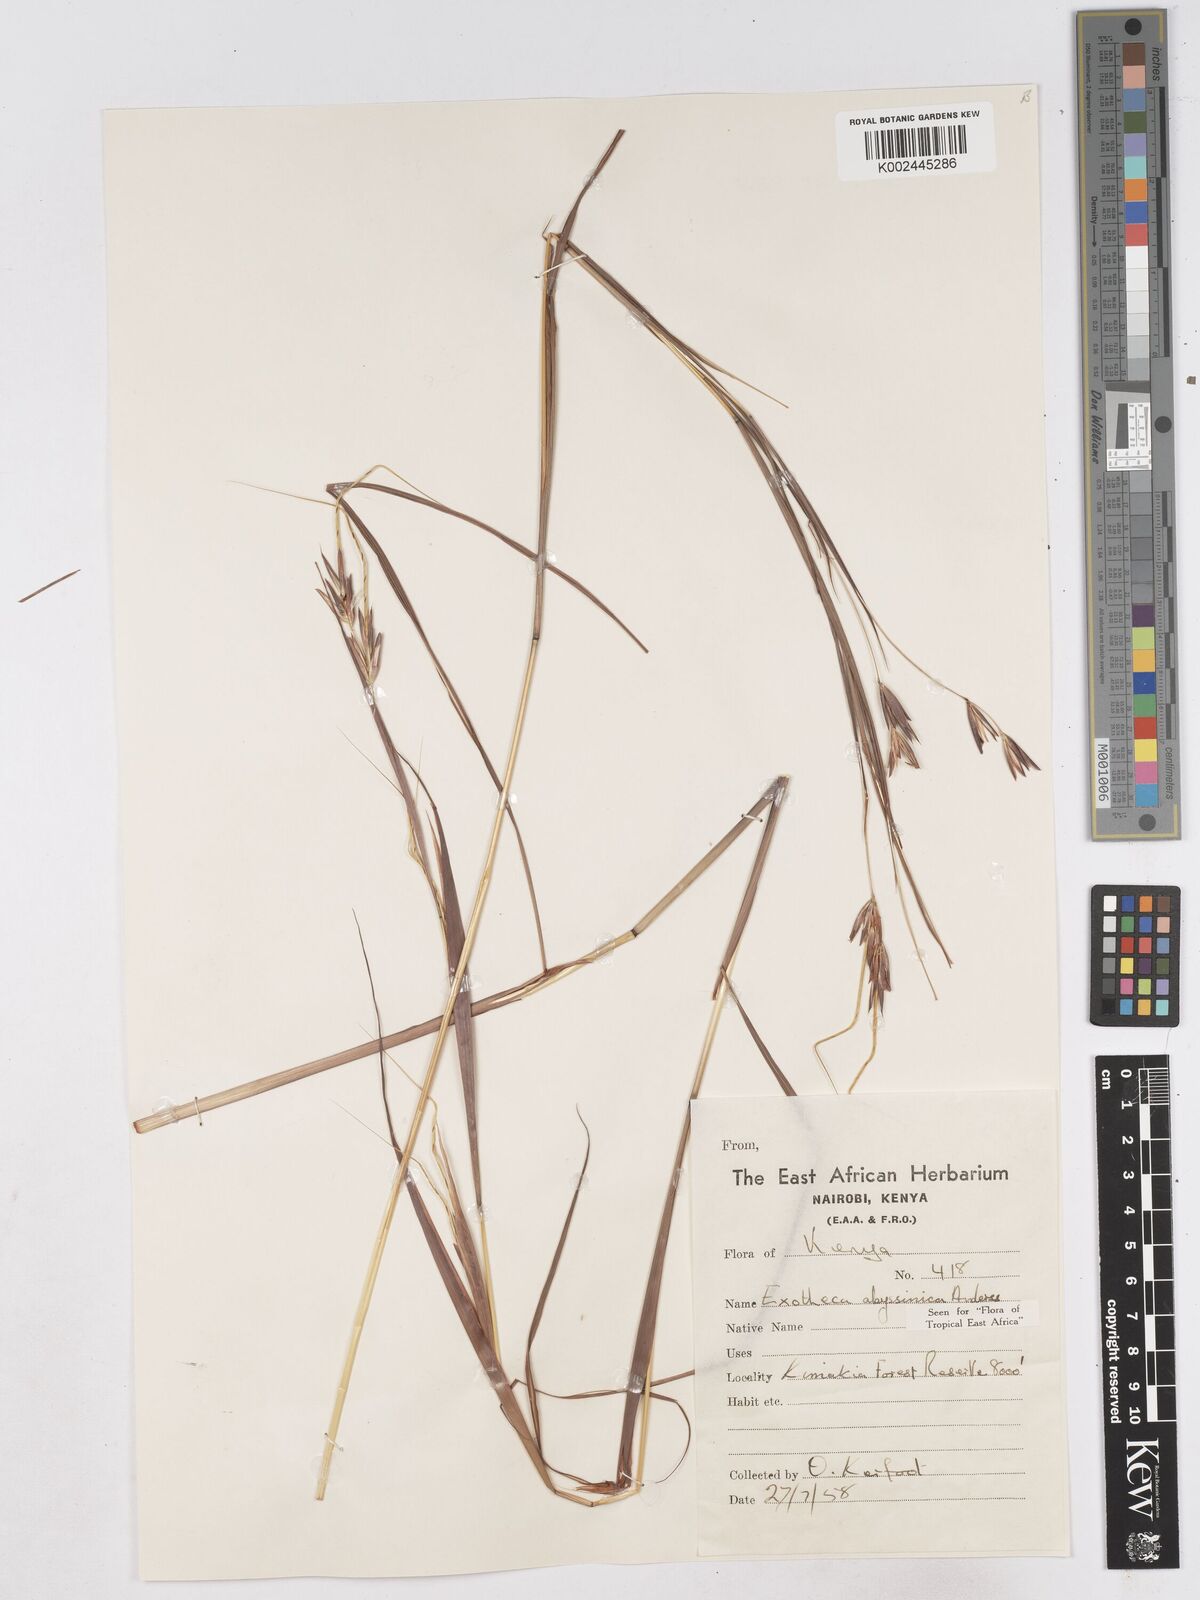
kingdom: Plantae
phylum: Tracheophyta
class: Liliopsida
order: Poales
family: Poaceae
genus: Exotheca
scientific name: Exotheca abyssinica
